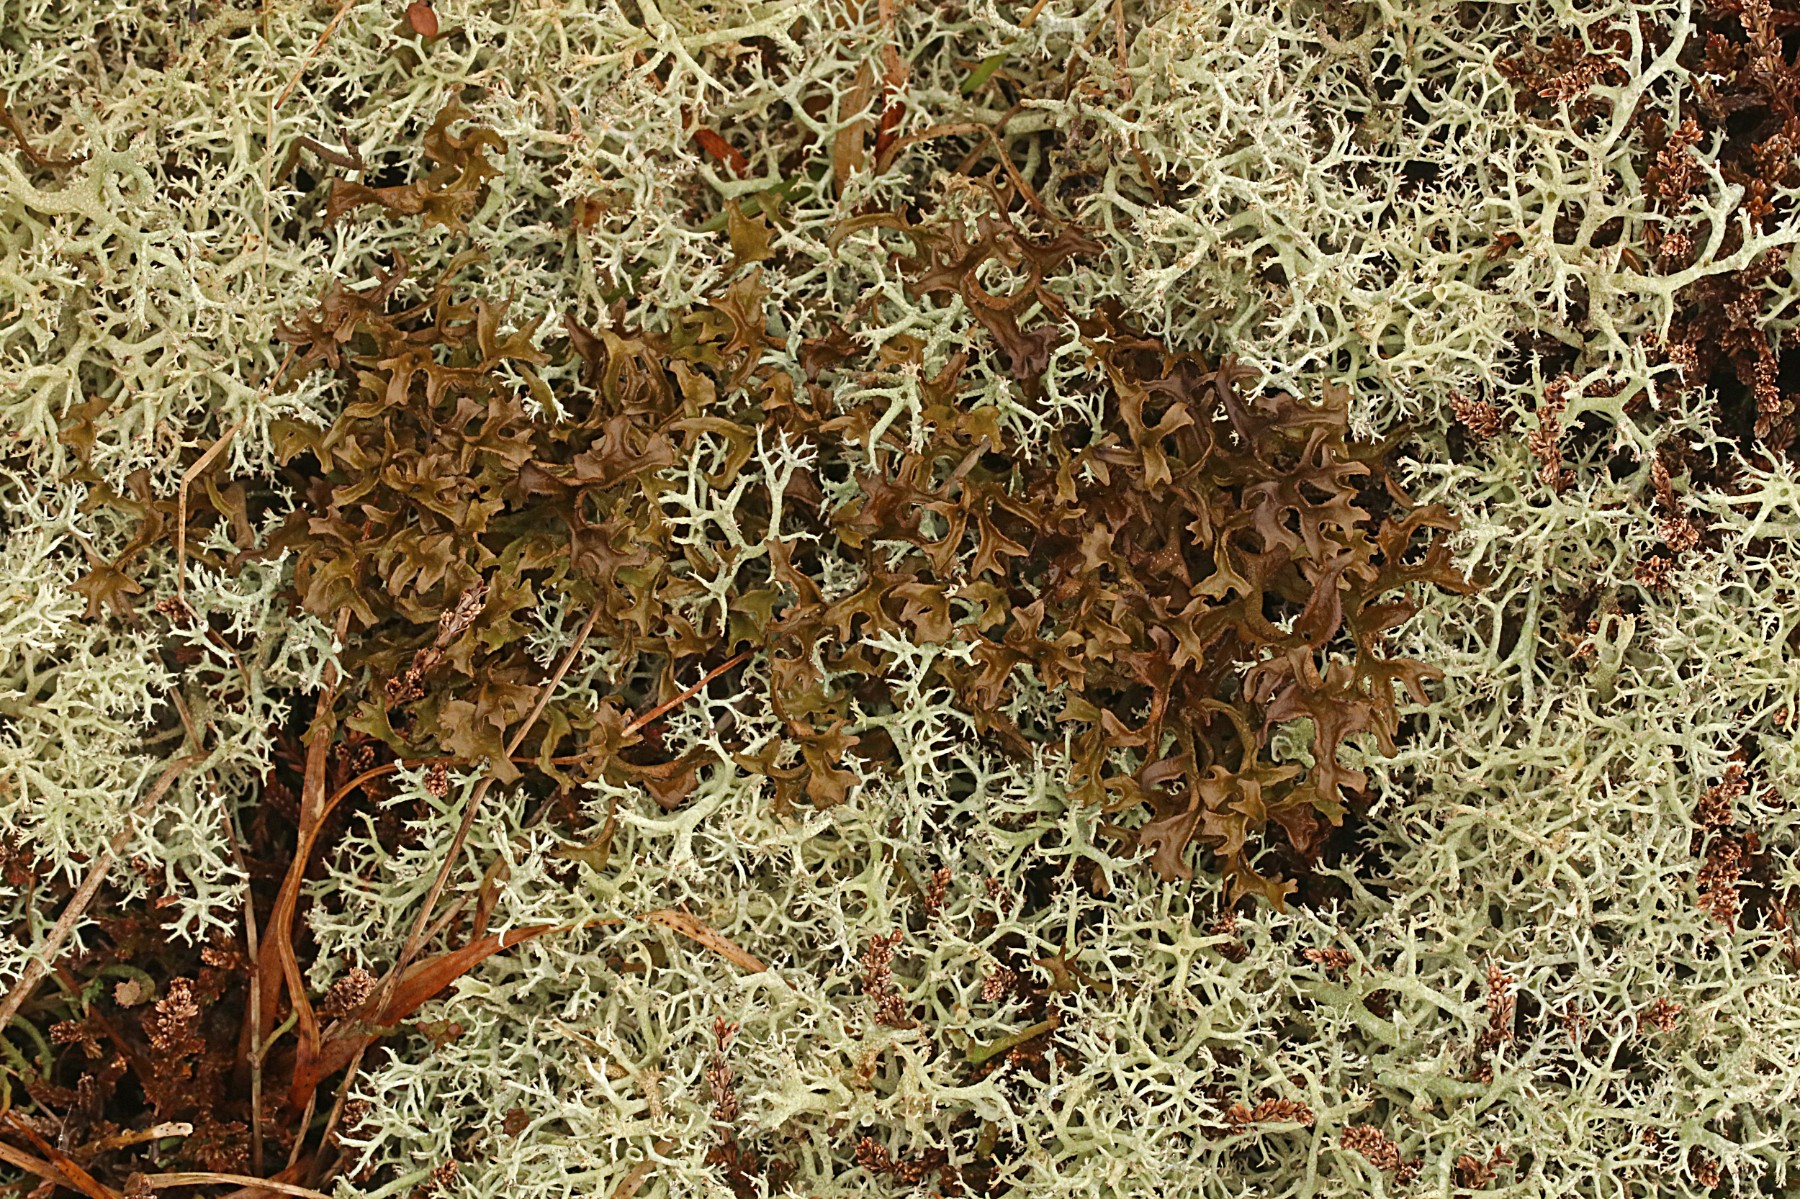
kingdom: Fungi
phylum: Ascomycota
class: Lecanoromycetes
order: Lecanorales
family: Parmeliaceae
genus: Cetraria
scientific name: Cetraria islandica
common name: islandsk kruslav
